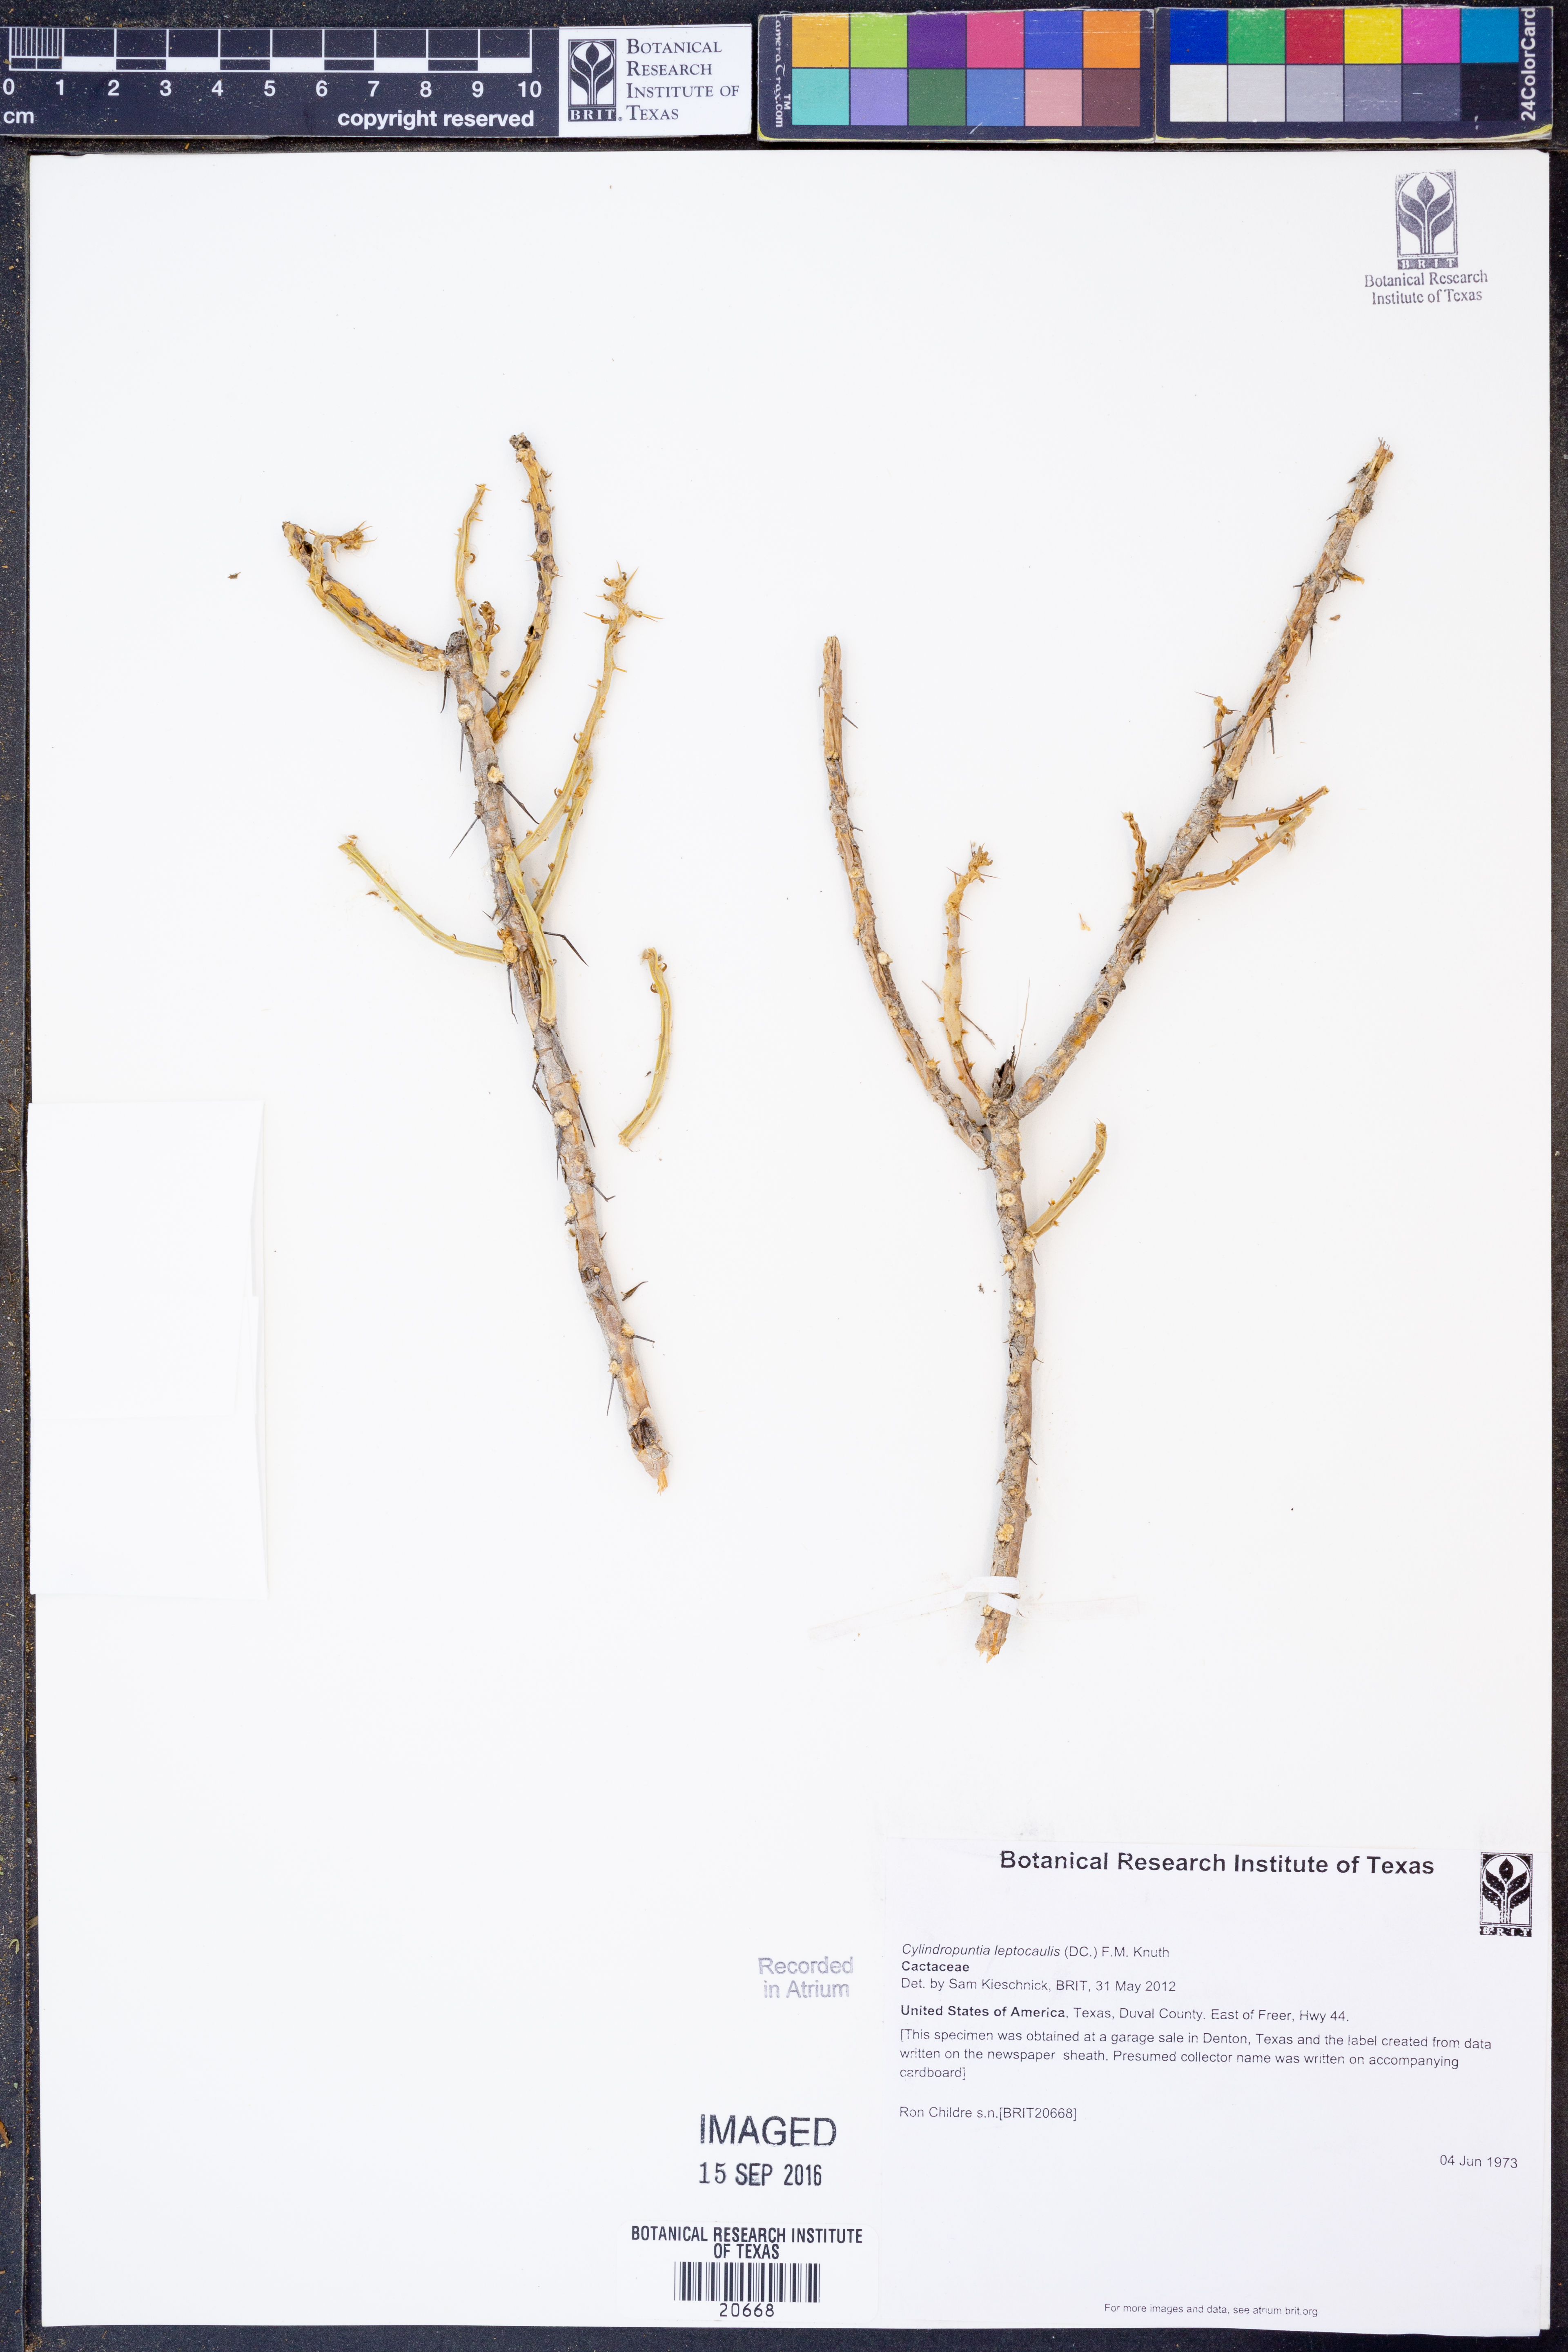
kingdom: Plantae
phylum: Tracheophyta
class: Magnoliopsida
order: Caryophyllales
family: Cactaceae
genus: Cylindropuntia
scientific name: Cylindropuntia leptocaulis
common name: Christmas cactus
